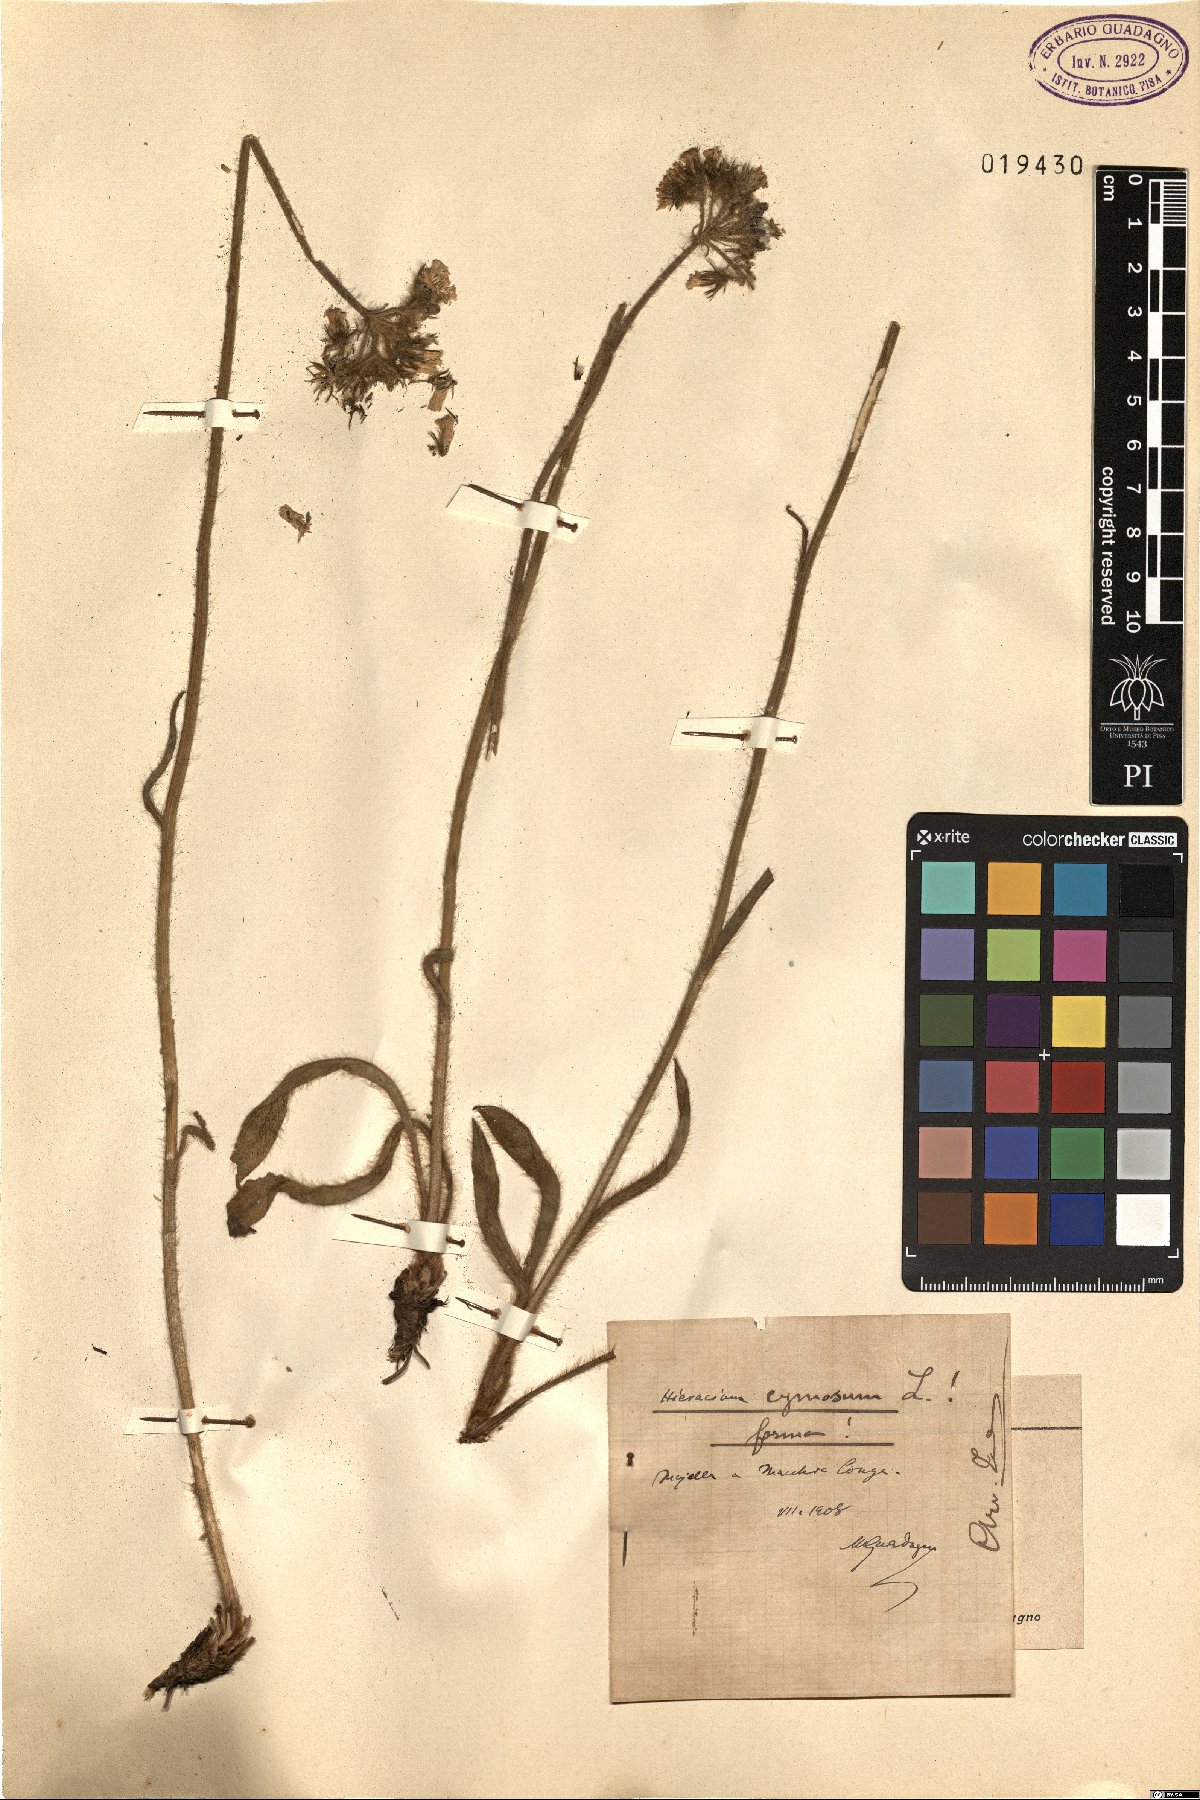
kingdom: Plantae
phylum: Tracheophyta
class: Magnoliopsida
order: Asterales
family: Asteraceae
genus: Pilosella
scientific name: Pilosella cymosa
